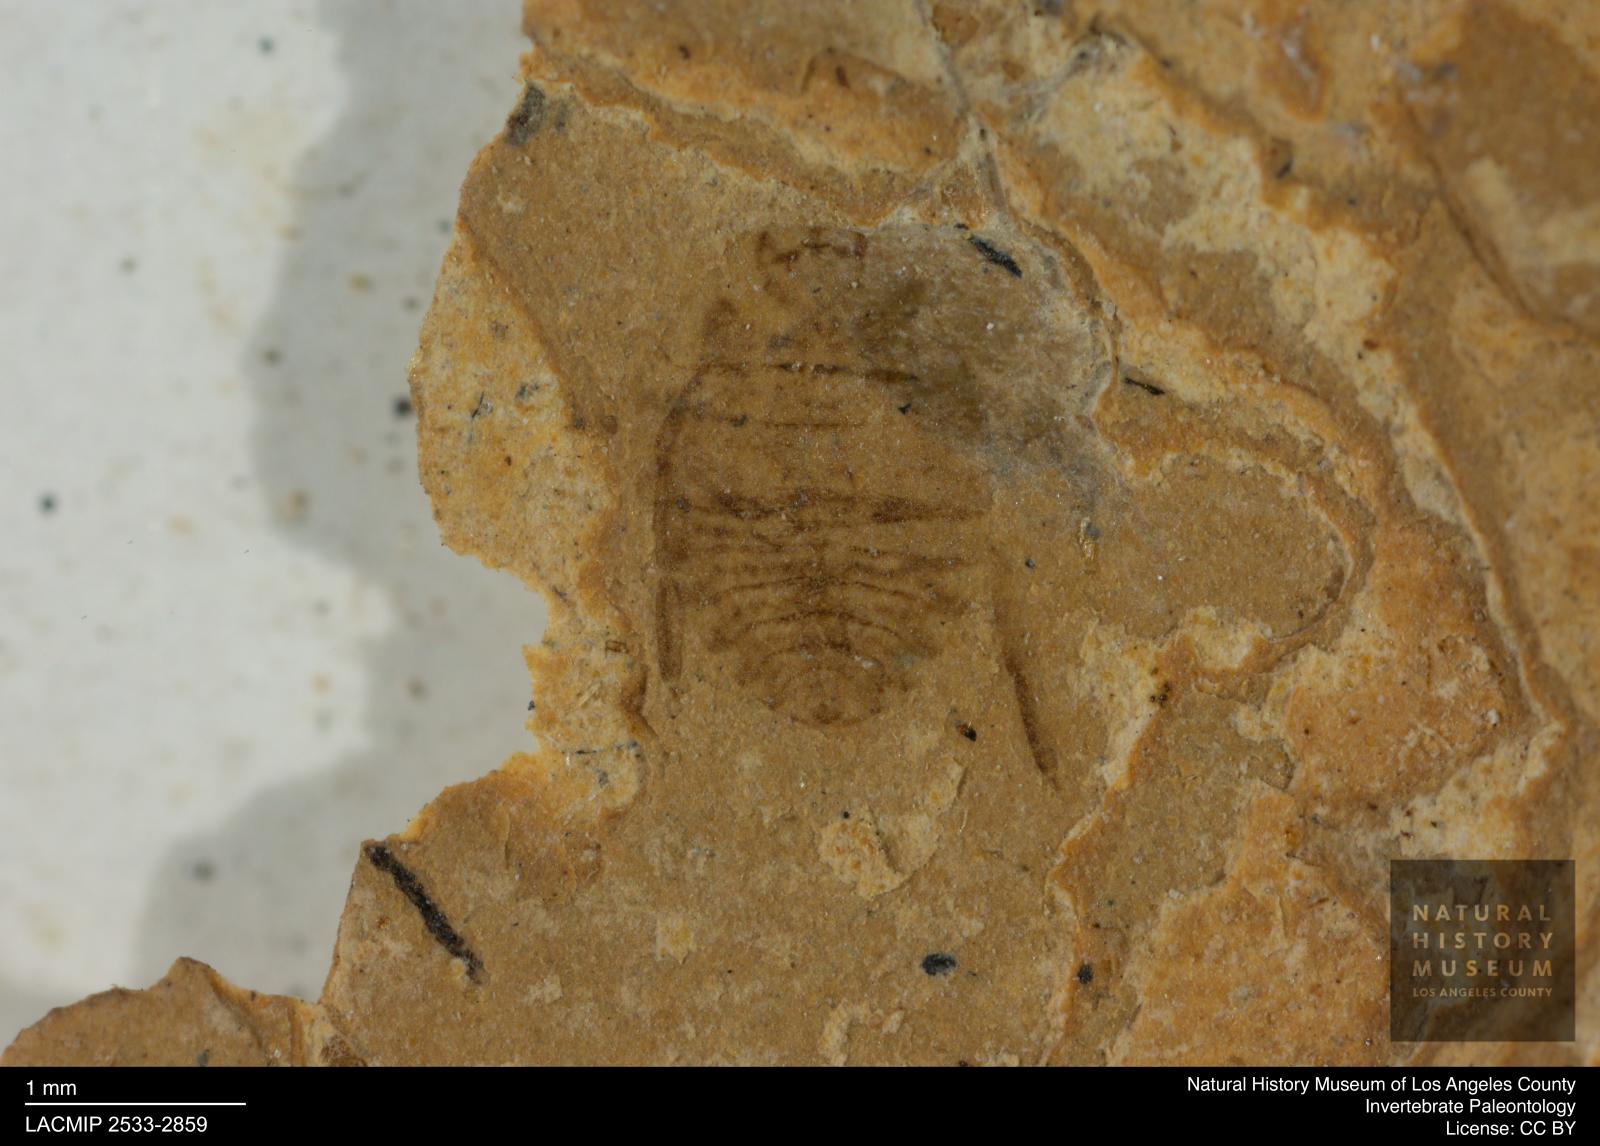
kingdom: Animalia
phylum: Arthropoda
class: Insecta
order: Hemiptera
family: Naucoridae
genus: Naucoris
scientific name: Naucoris rottensis
